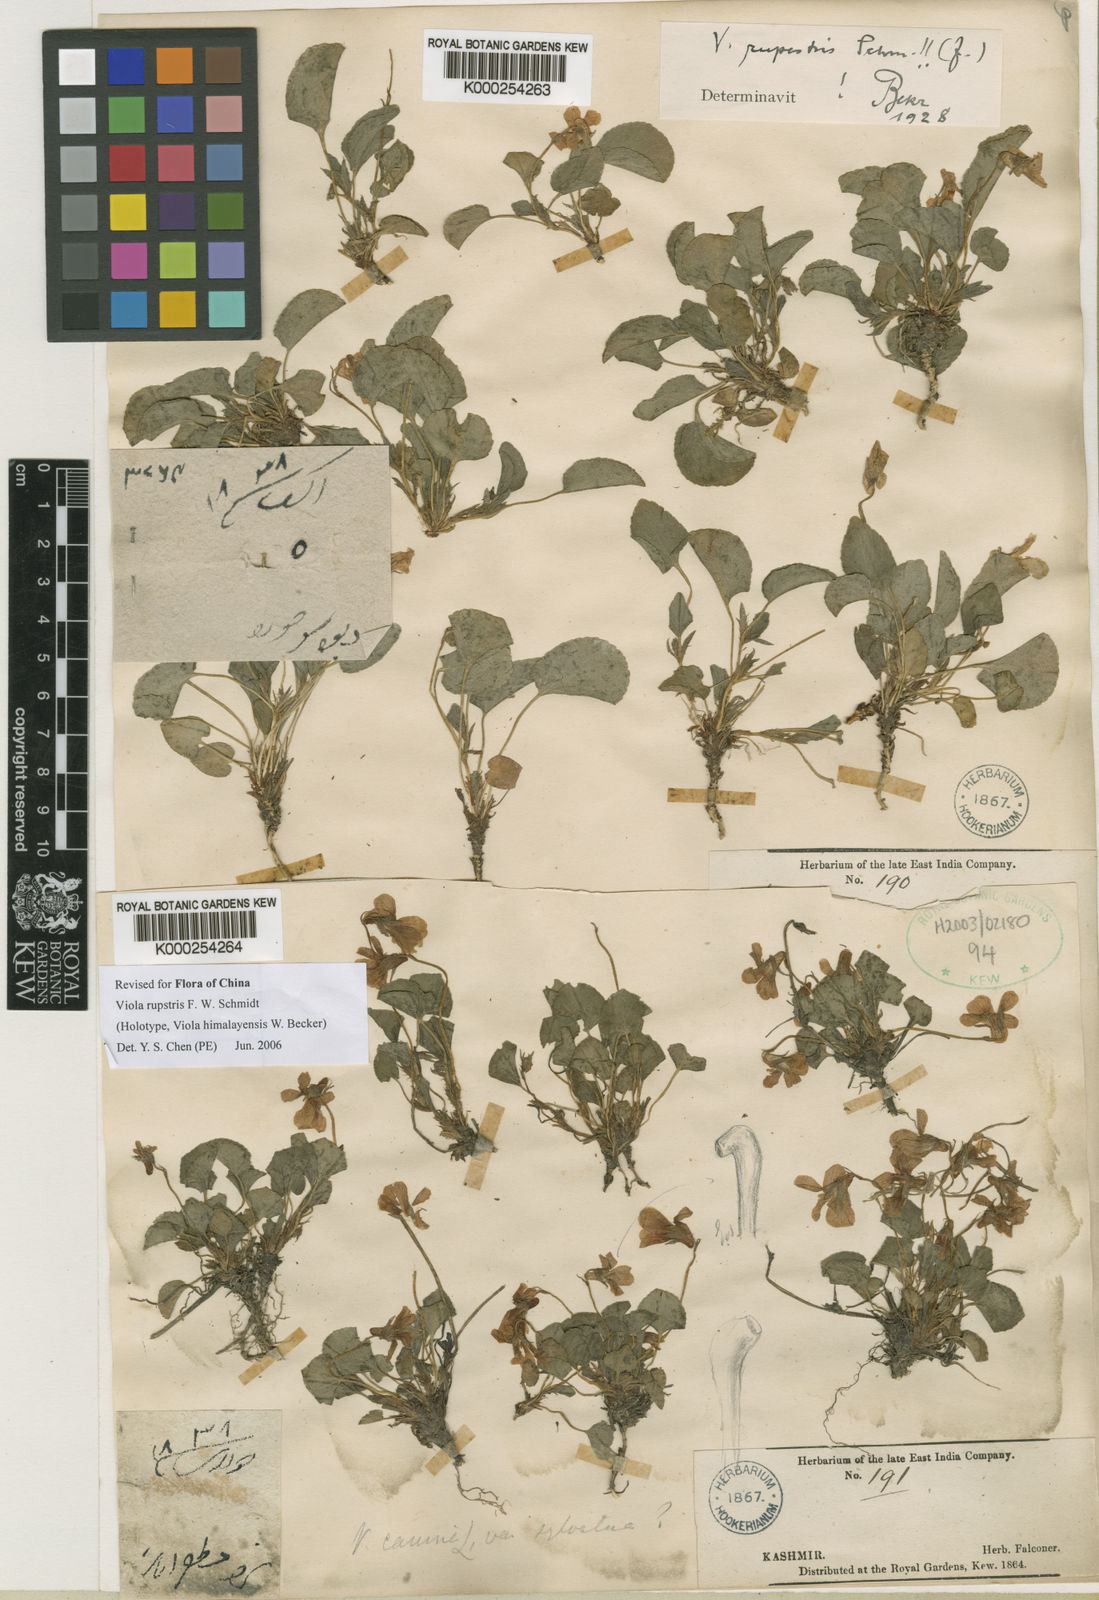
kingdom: Plantae
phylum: Tracheophyta
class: Magnoliopsida
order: Malpighiales
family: Violaceae
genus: Viola
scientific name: Viola rupestris
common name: Teesdale violet
